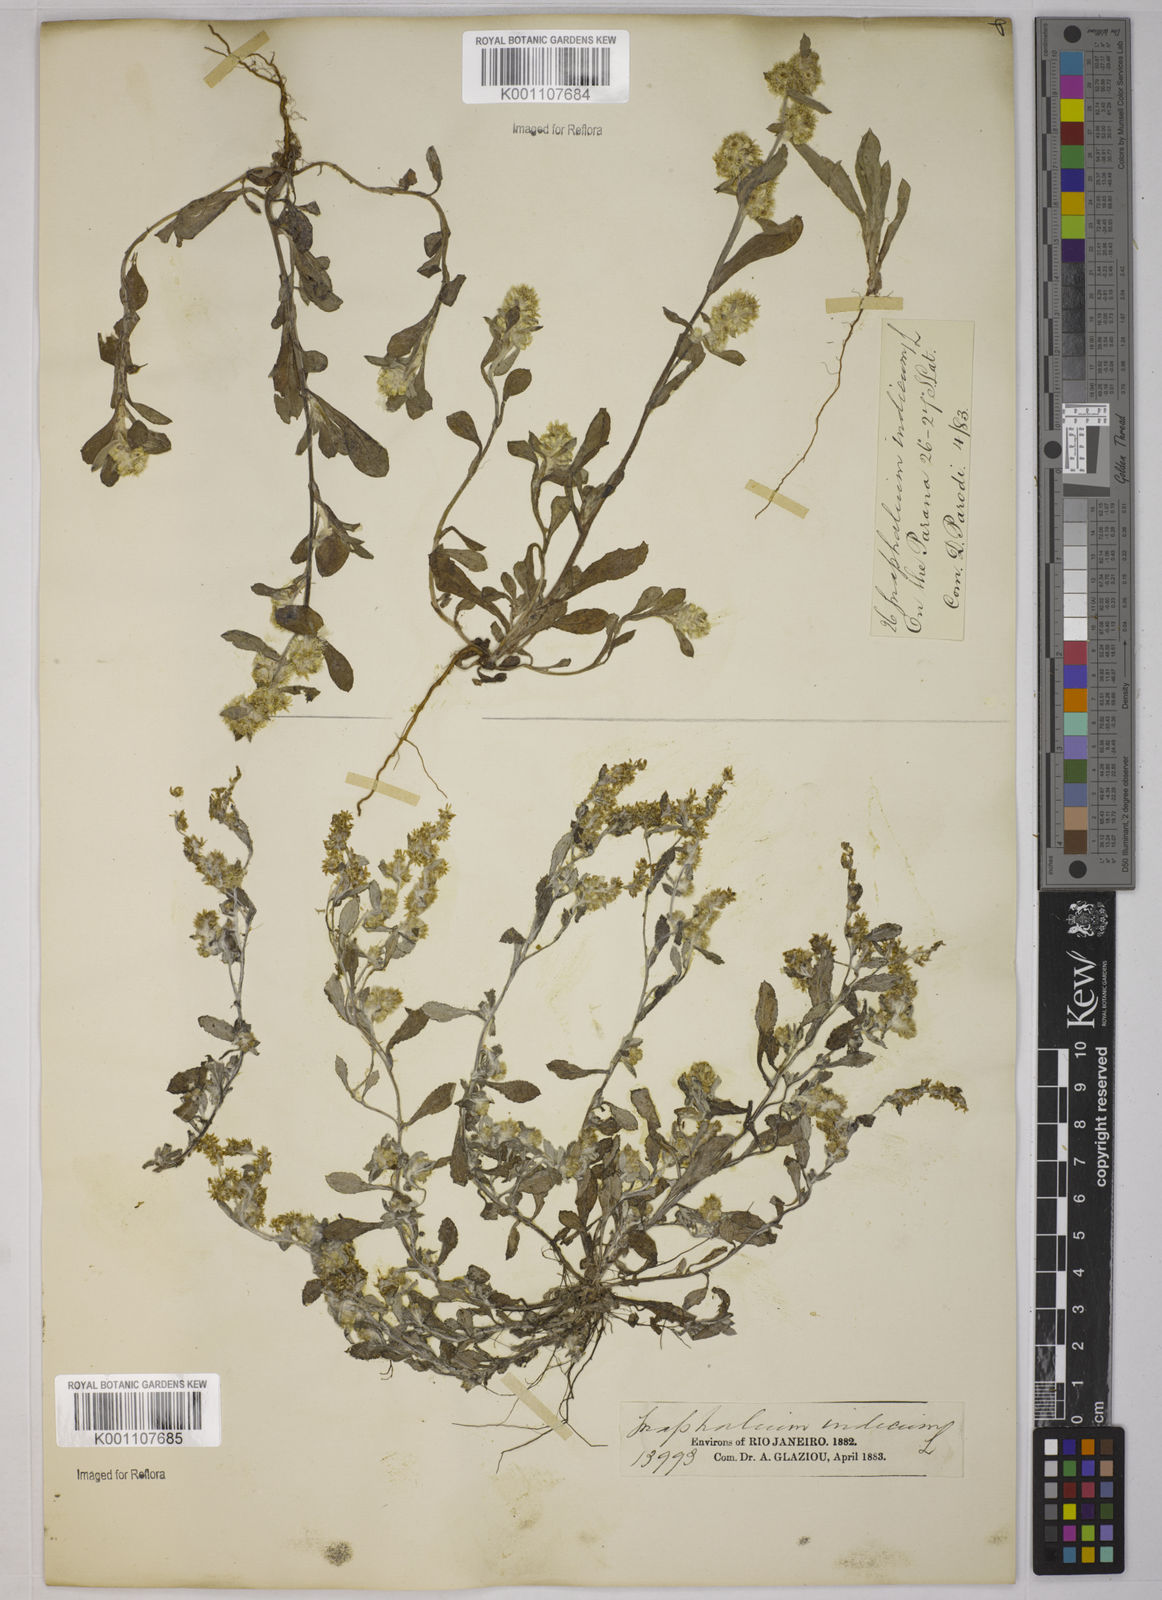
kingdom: Plantae
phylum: Tracheophyta
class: Magnoliopsida
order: Asterales
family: Asteraceae
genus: Gnaphalium
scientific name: Gnaphalium polycaulon
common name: Western cudweed
